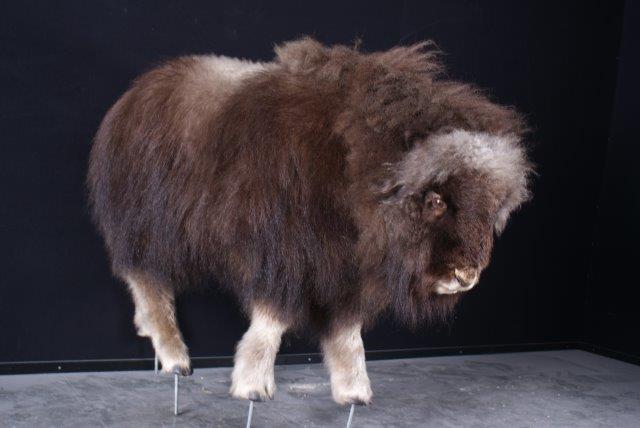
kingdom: Animalia
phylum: Chordata
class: Mammalia
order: Artiodactyla
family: Bovidae
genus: Ovibos
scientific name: Ovibos moschatus
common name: Muskox
